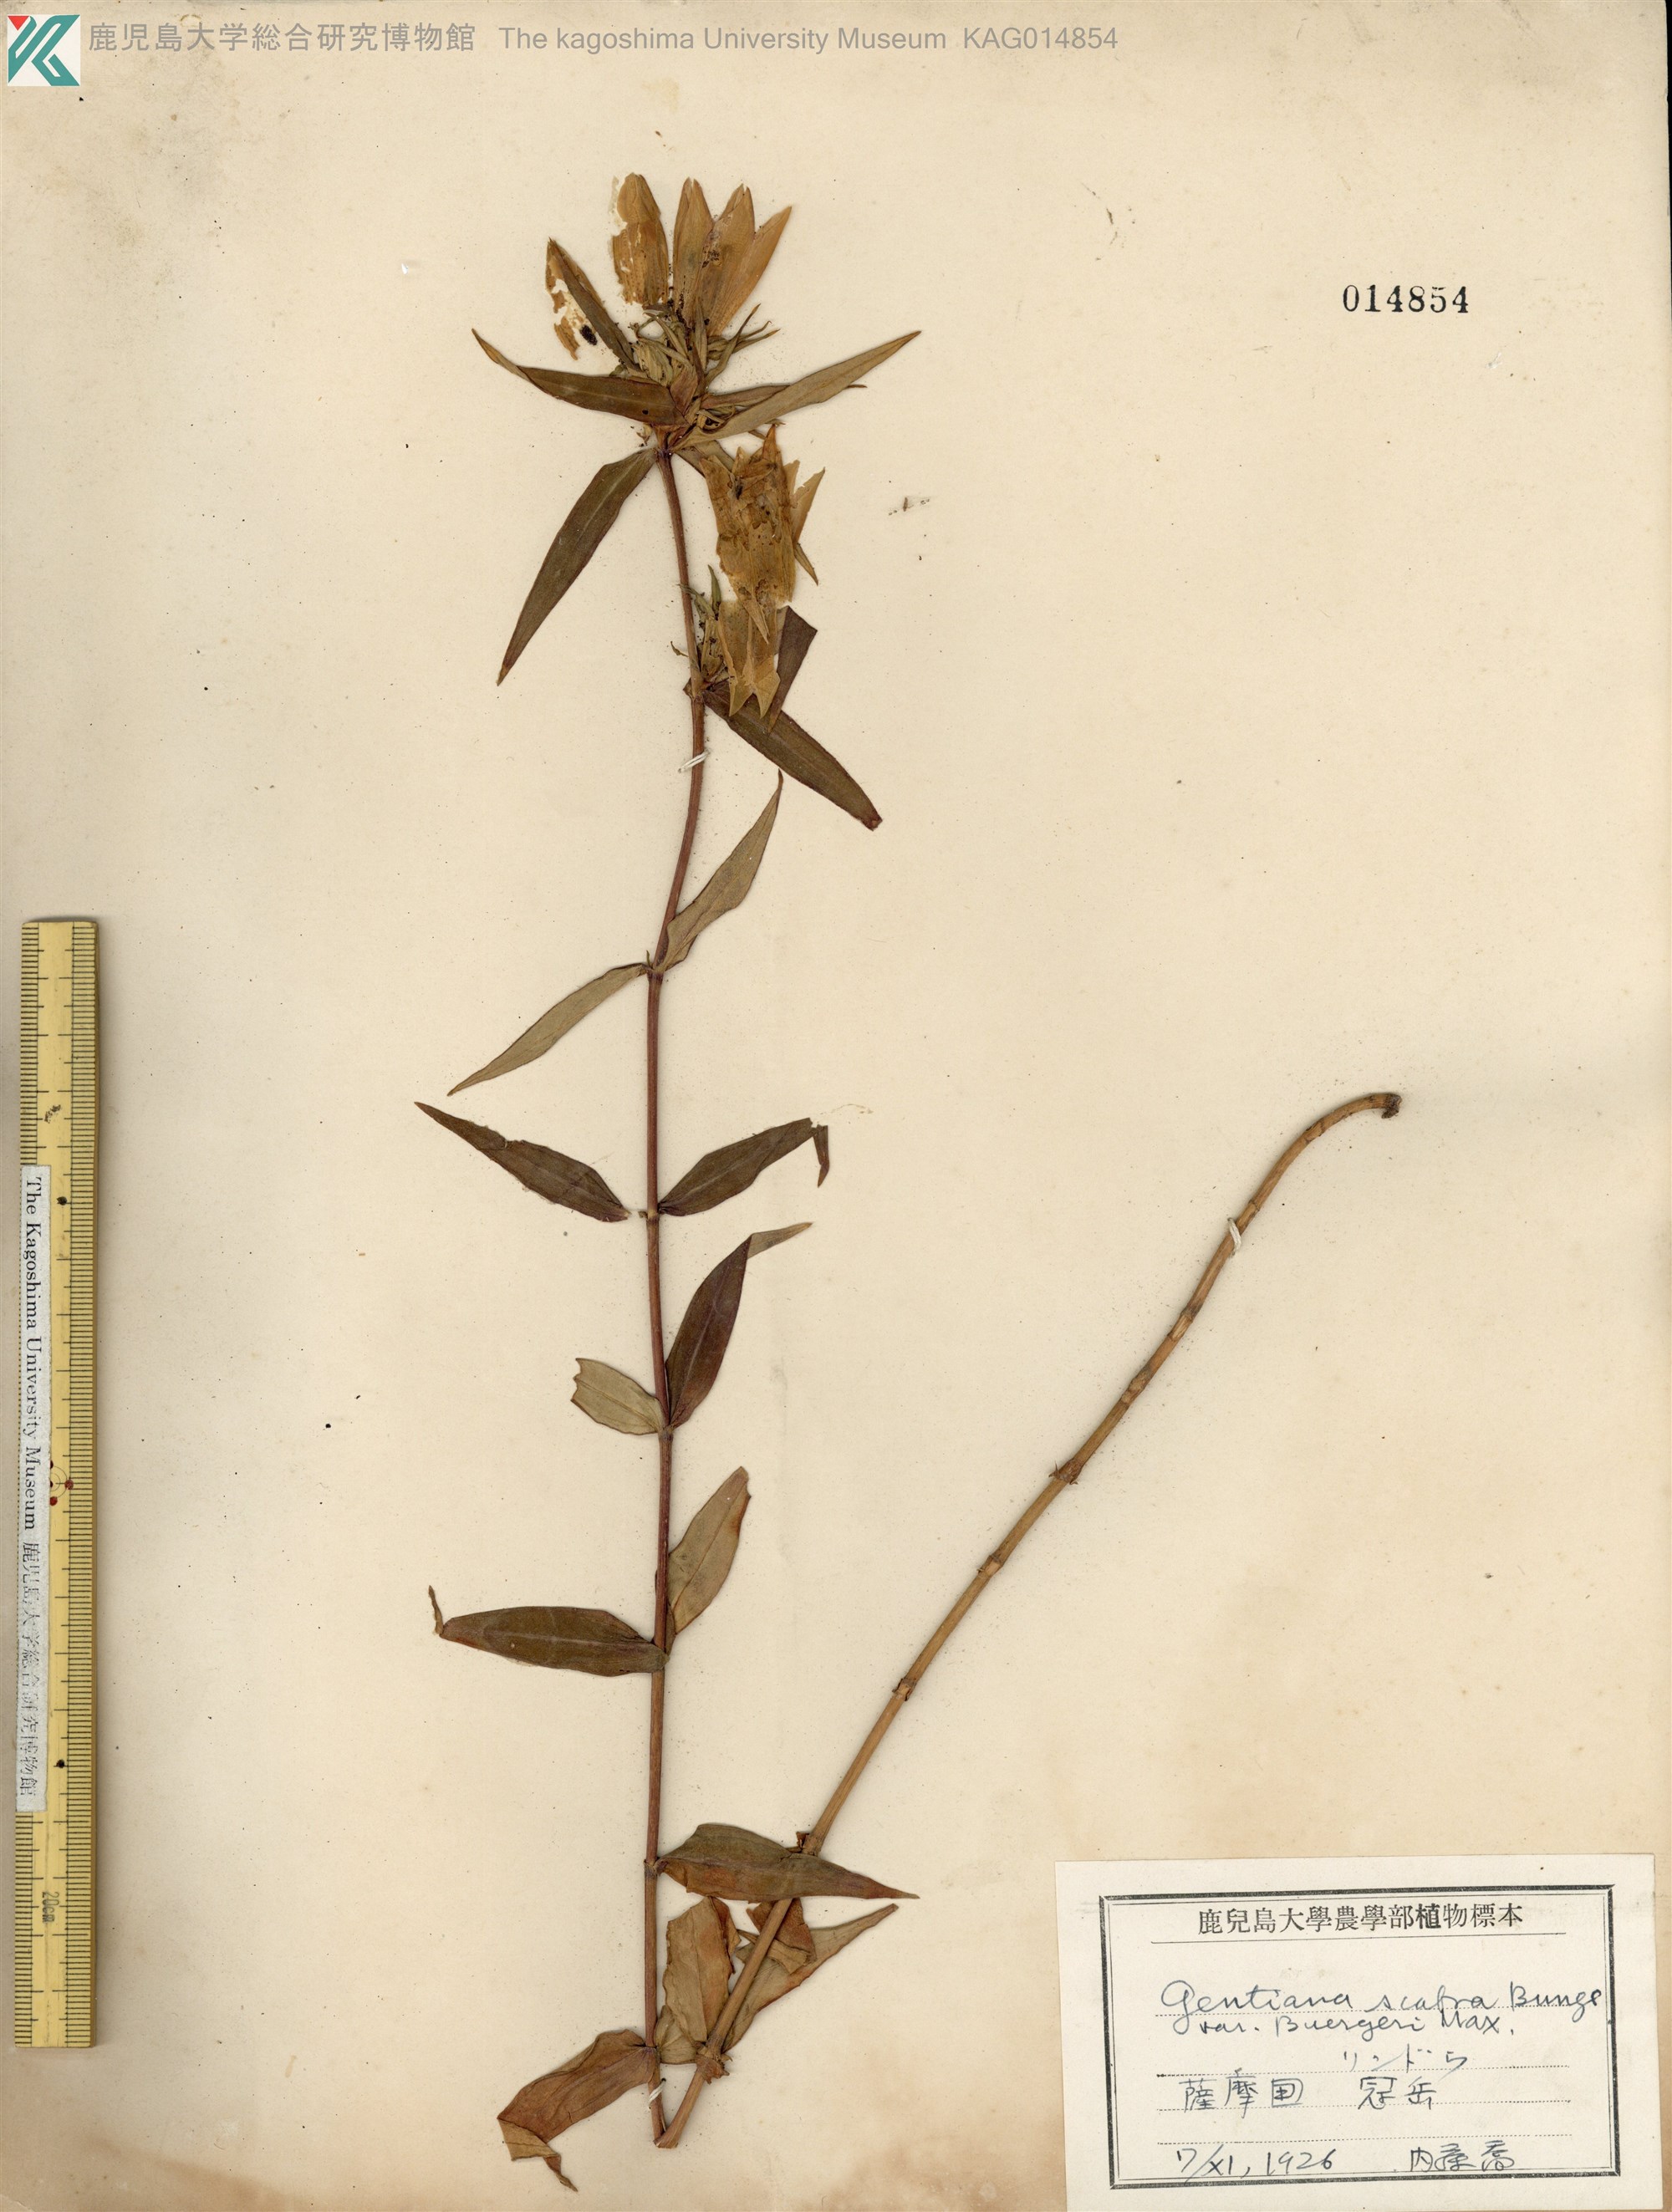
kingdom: Plantae
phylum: Tracheophyta
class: Magnoliopsida
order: Gentianales
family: Gentianaceae
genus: Gentiana
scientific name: Gentiana scabra
